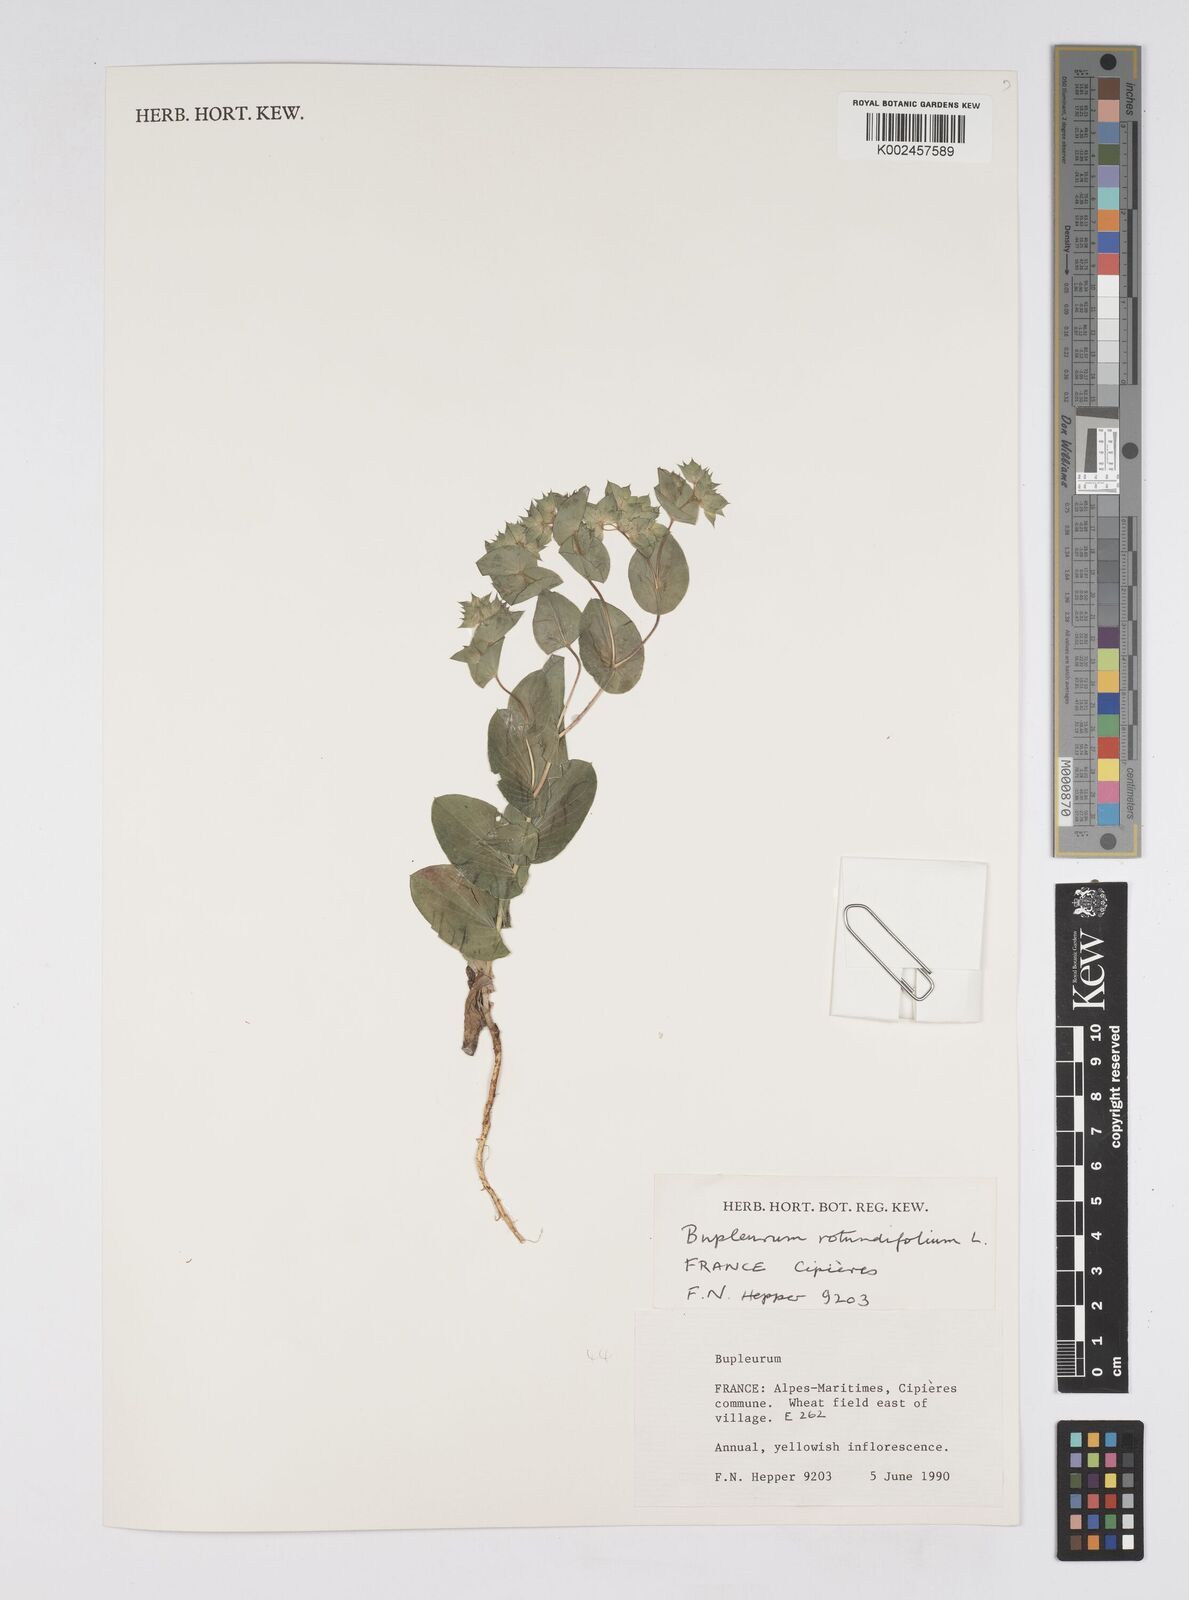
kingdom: Plantae
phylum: Tracheophyta
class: Magnoliopsida
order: Apiales
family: Apiaceae
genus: Bupleurum
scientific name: Bupleurum rotundifolium
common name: Thorow-wax
